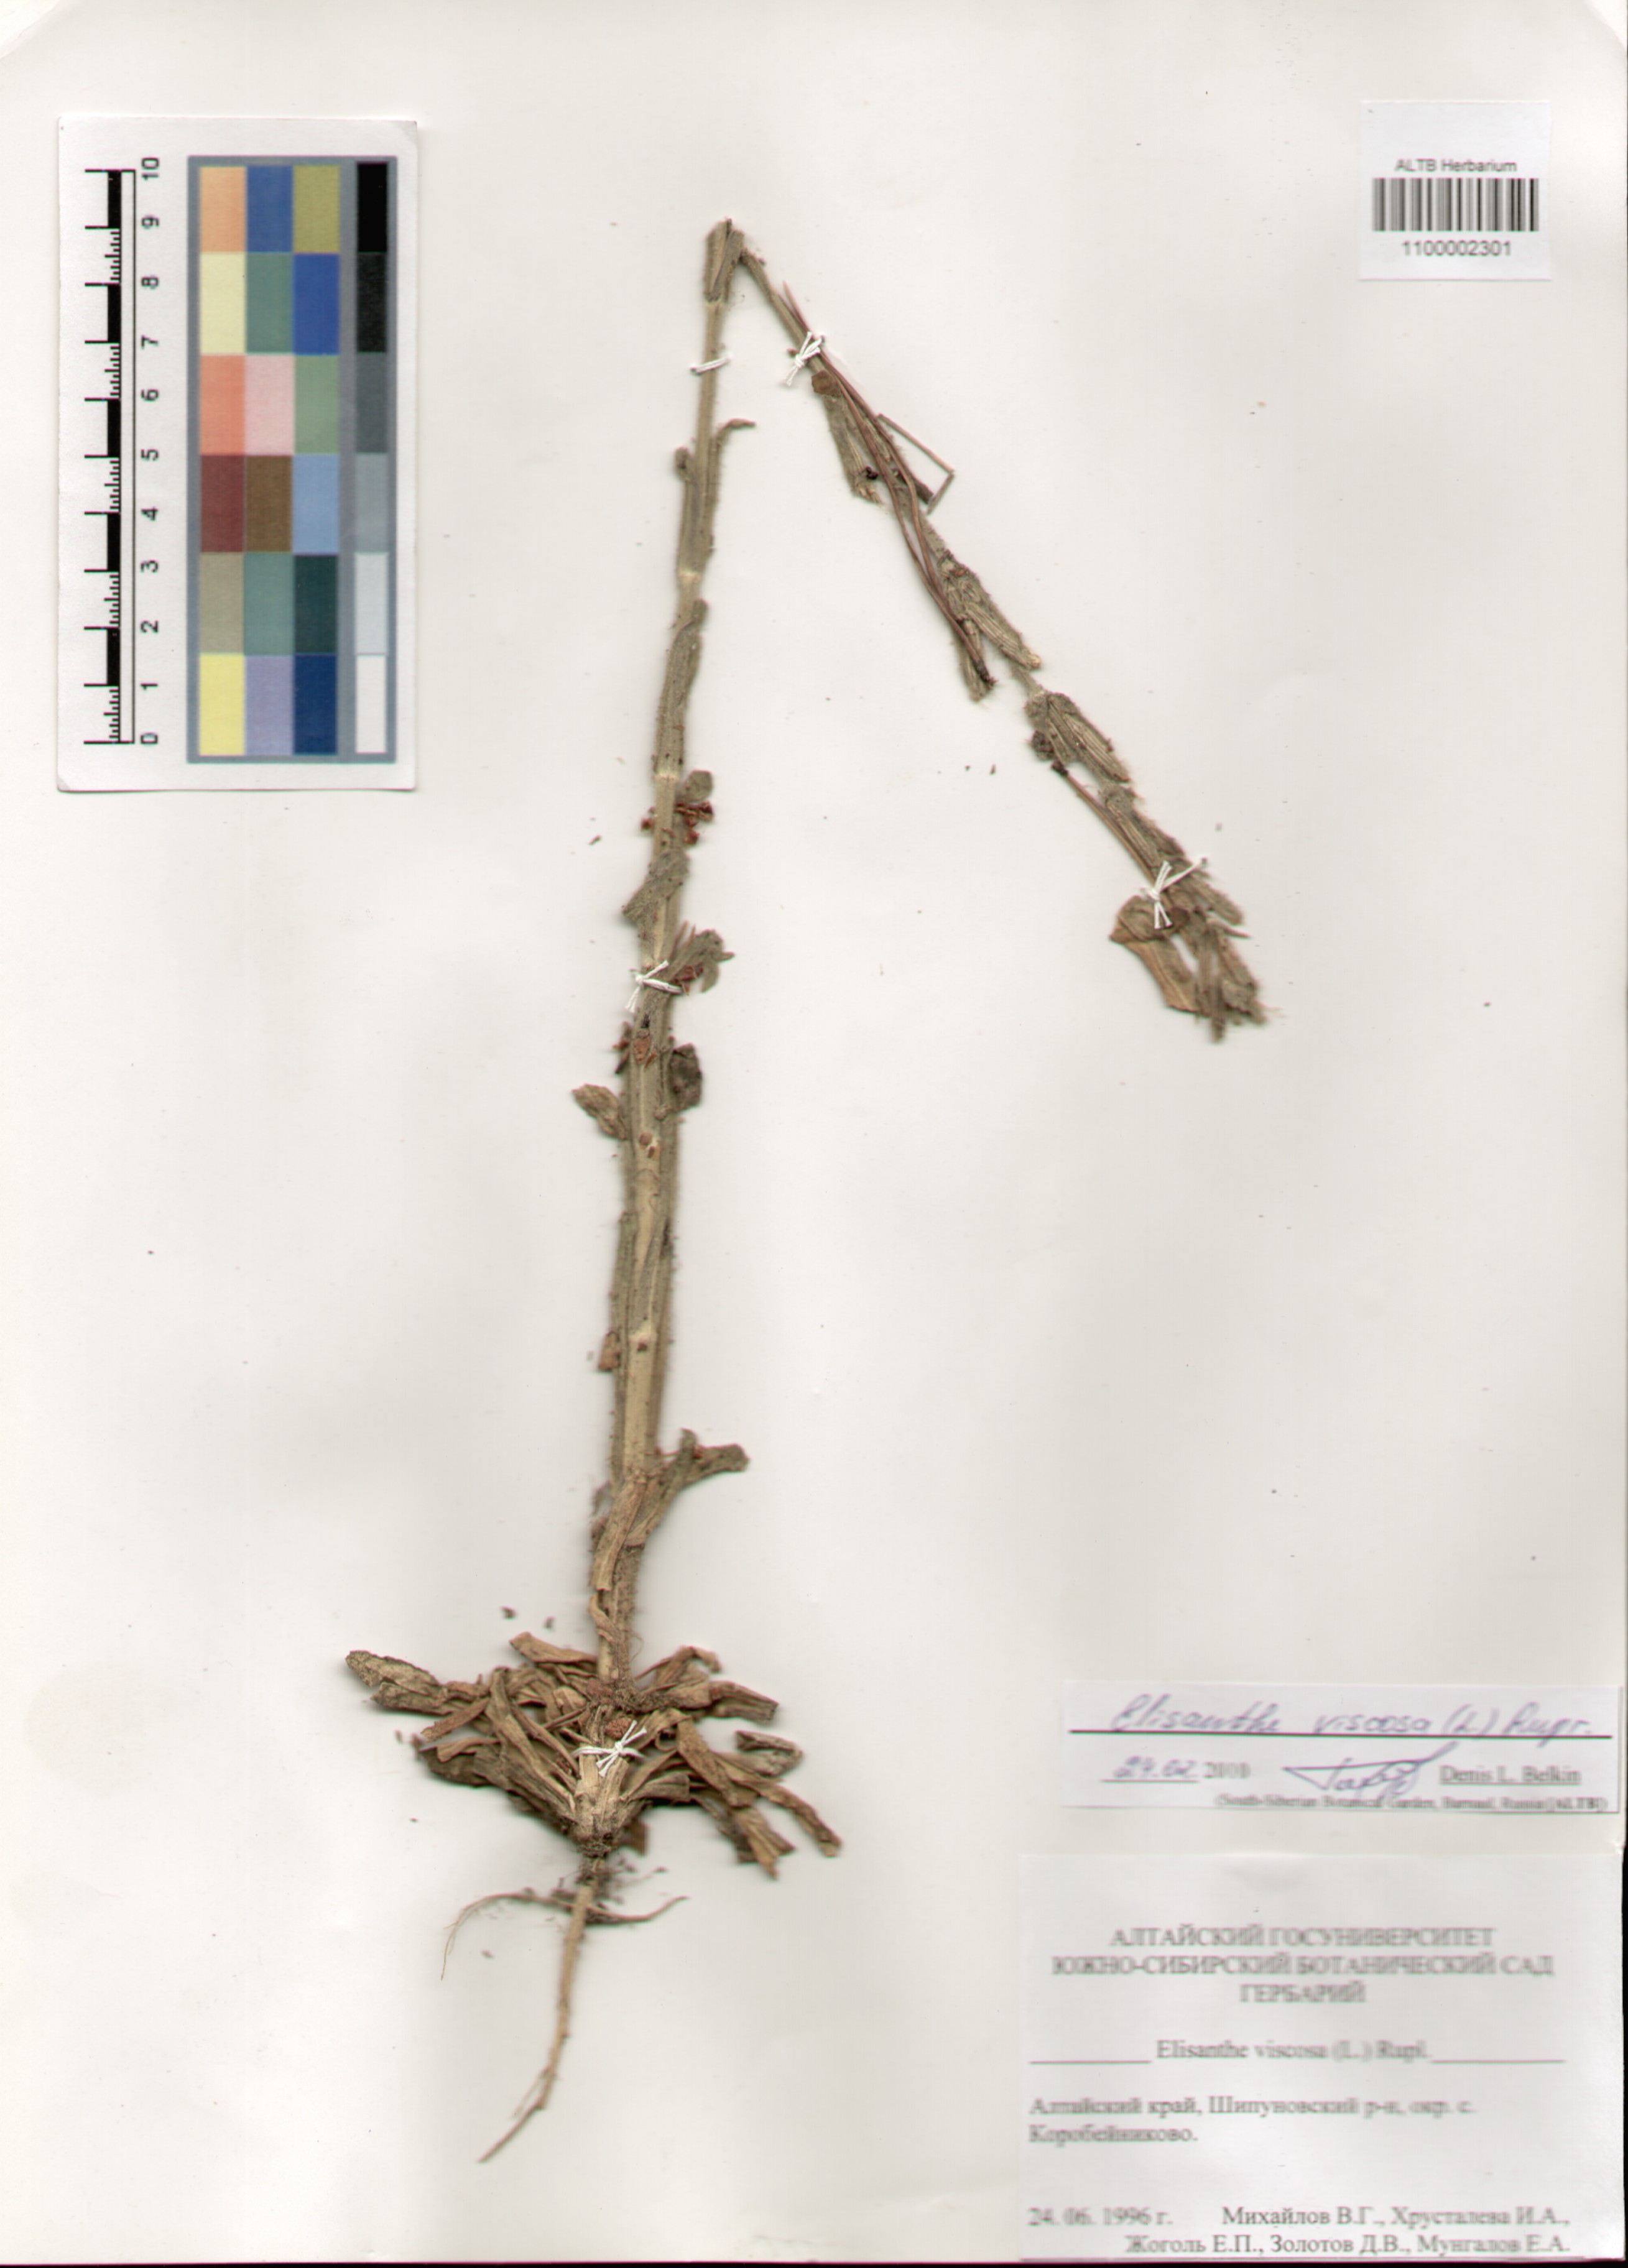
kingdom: Plantae
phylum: Tracheophyta
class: Magnoliopsida
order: Caryophyllales
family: Caryophyllaceae
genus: Silene
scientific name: Silene viscosa
